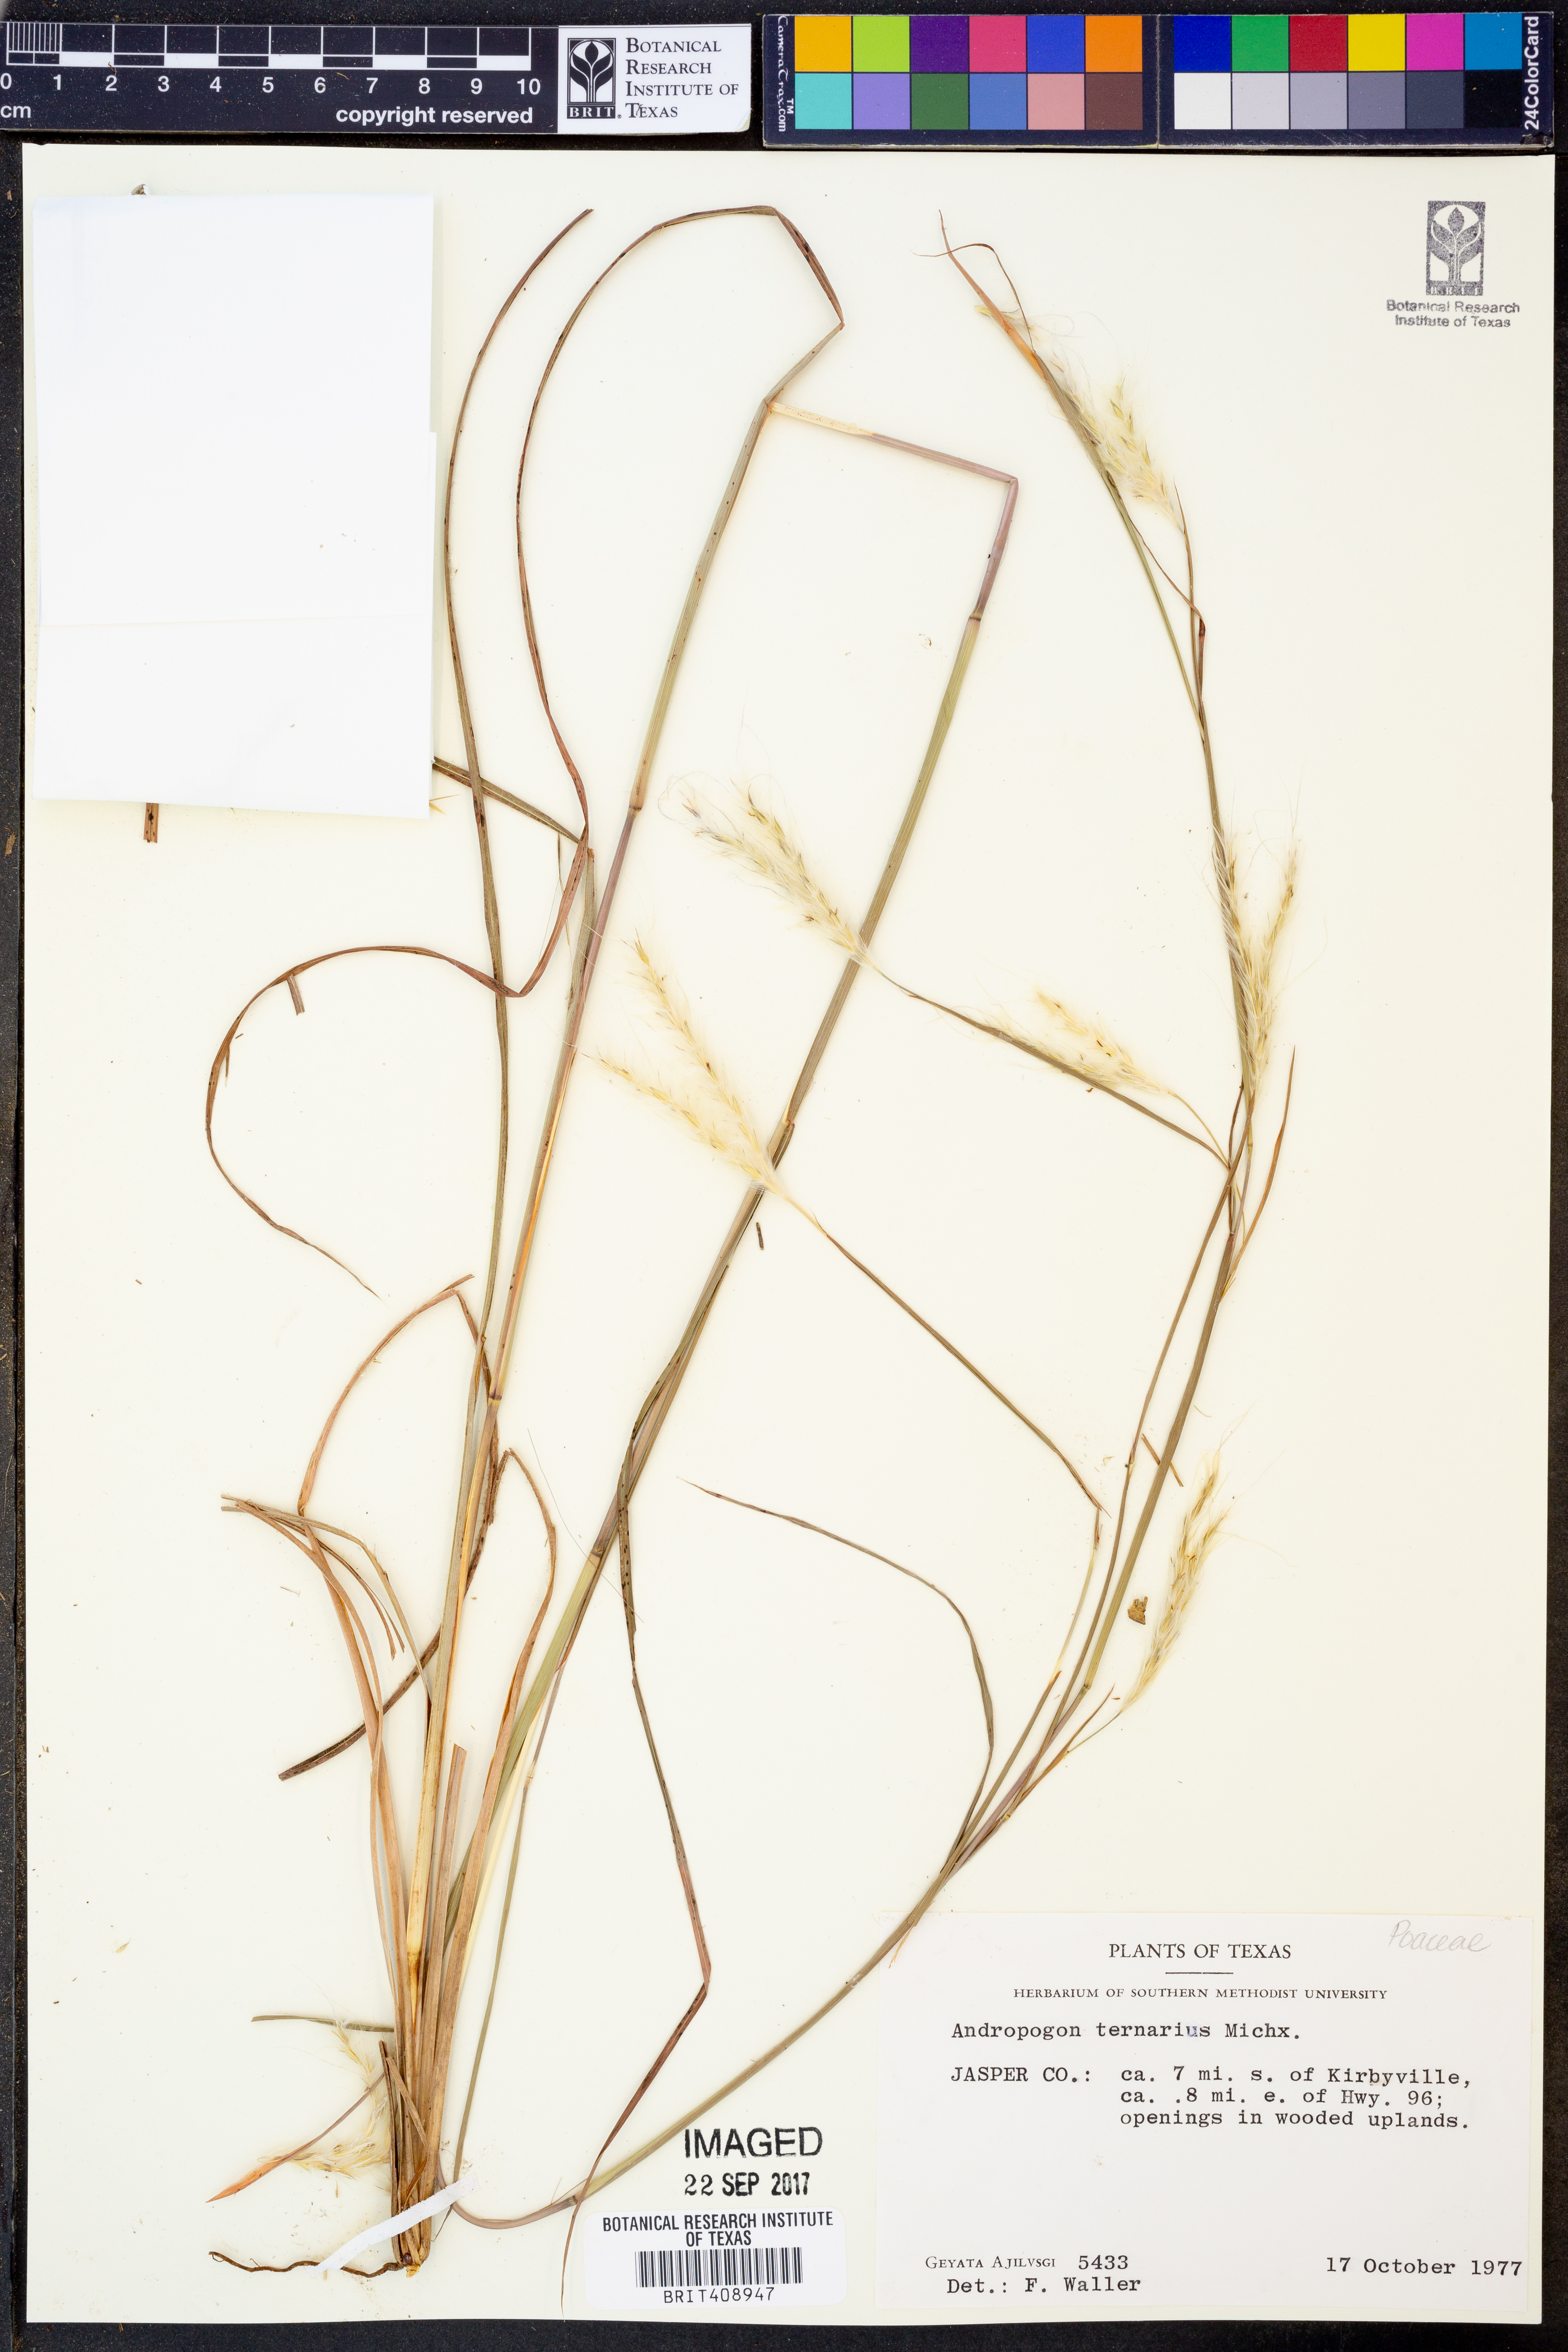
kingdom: Plantae
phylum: Tracheophyta
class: Liliopsida
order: Poales
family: Poaceae
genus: Andropogon
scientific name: Andropogon ternarius
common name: Split bluestem
